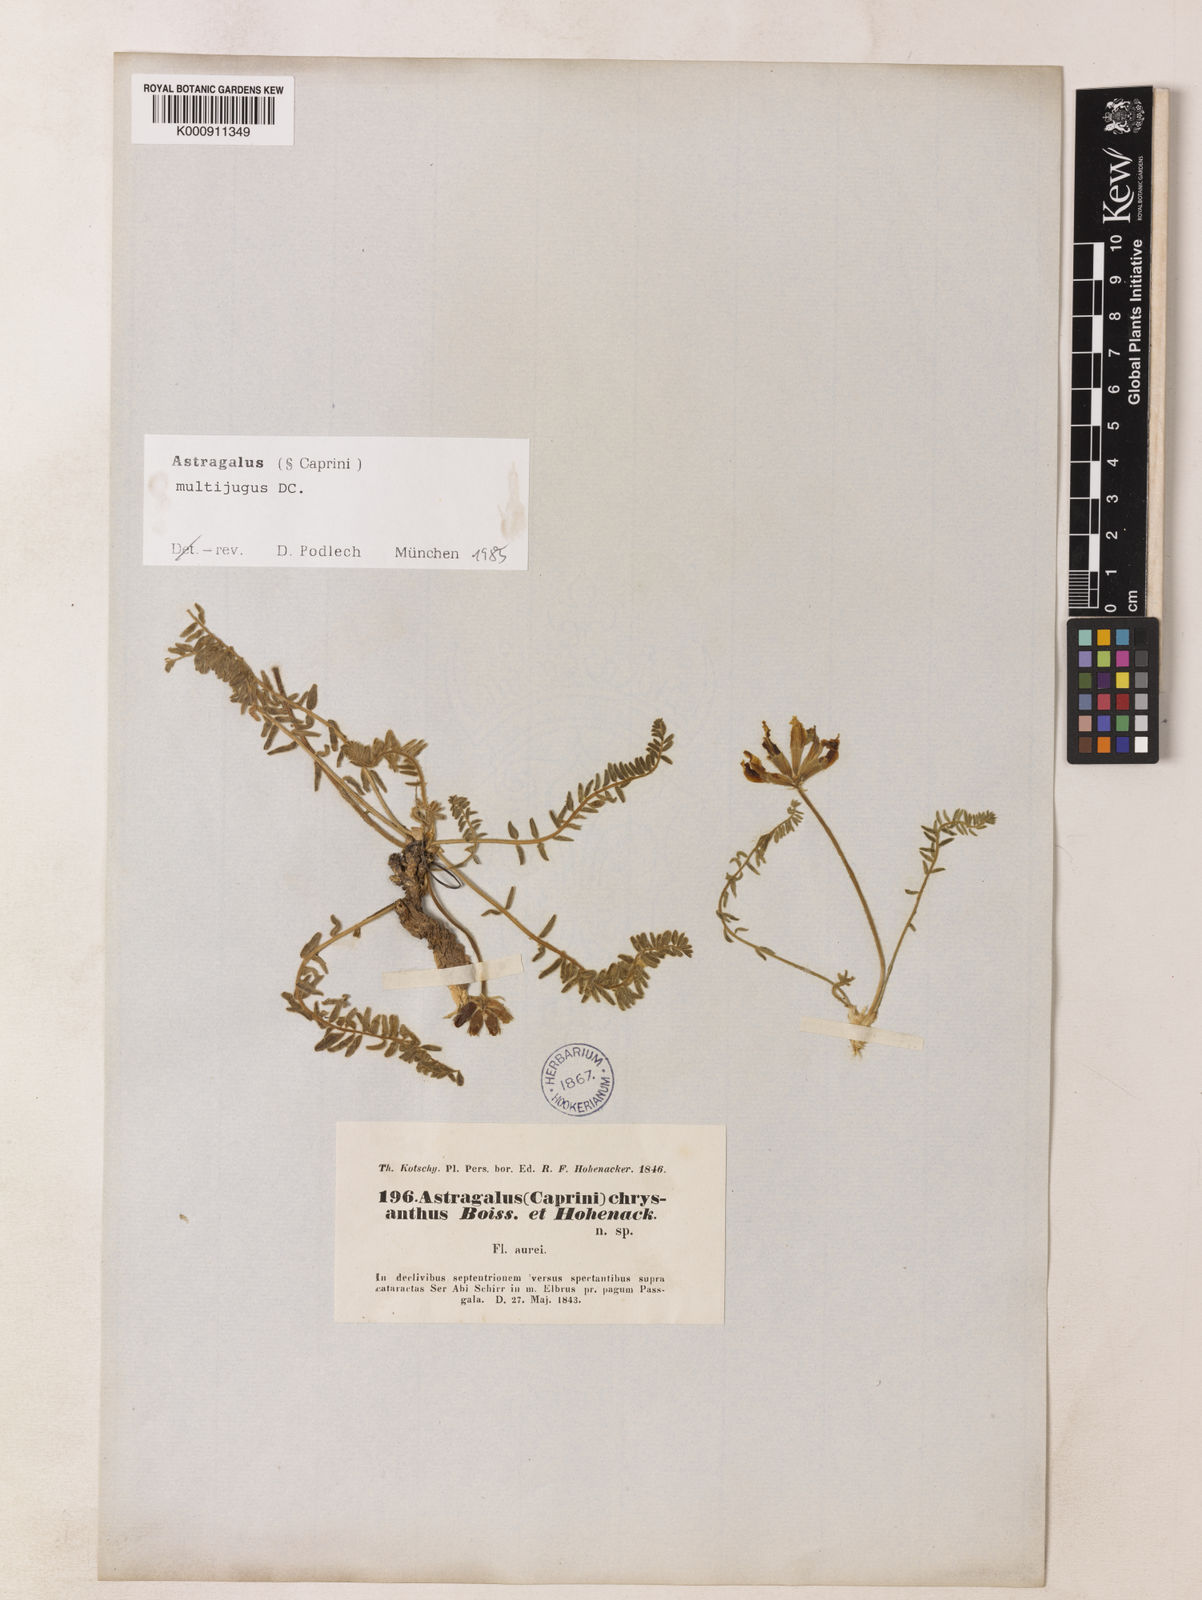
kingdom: Plantae
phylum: Tracheophyta
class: Magnoliopsida
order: Fabales
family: Fabaceae
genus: Astragalus
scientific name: Astragalus chrysanthus
